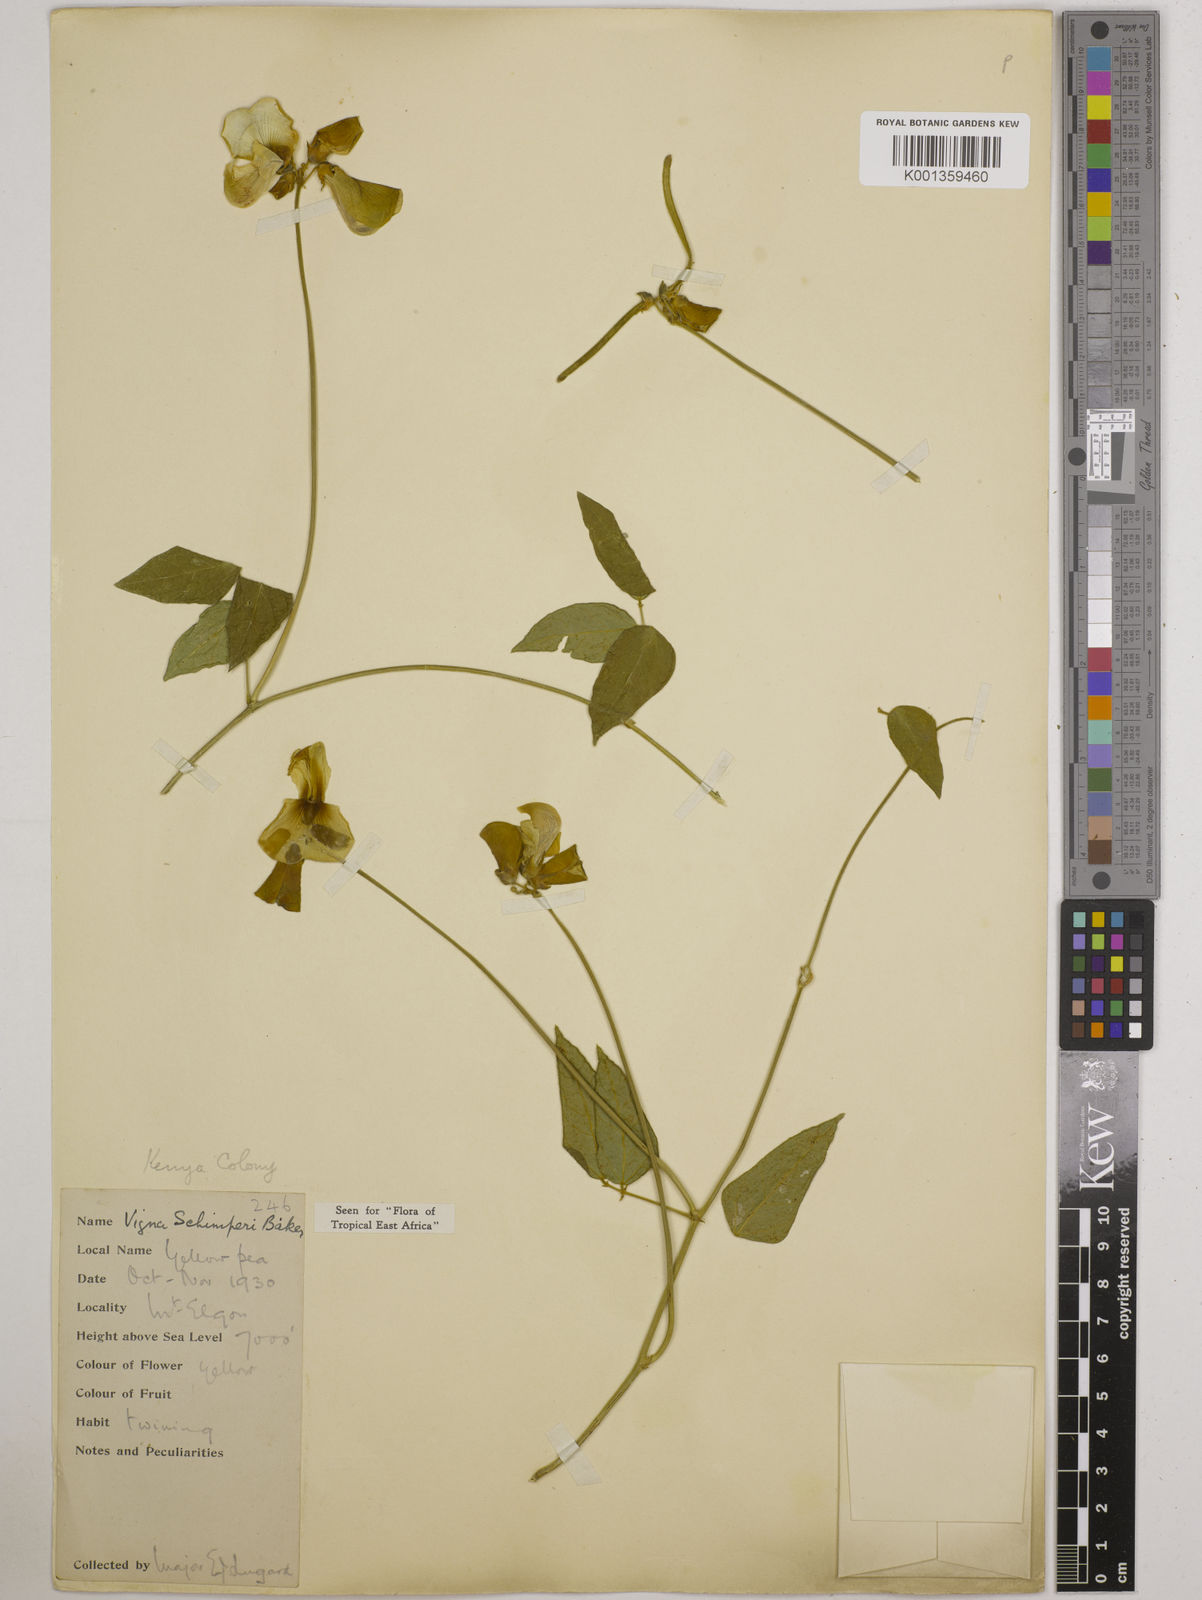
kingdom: Plantae
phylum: Tracheophyta
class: Magnoliopsida
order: Fabales
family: Fabaceae
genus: Vigna
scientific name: Vigna schimperi
